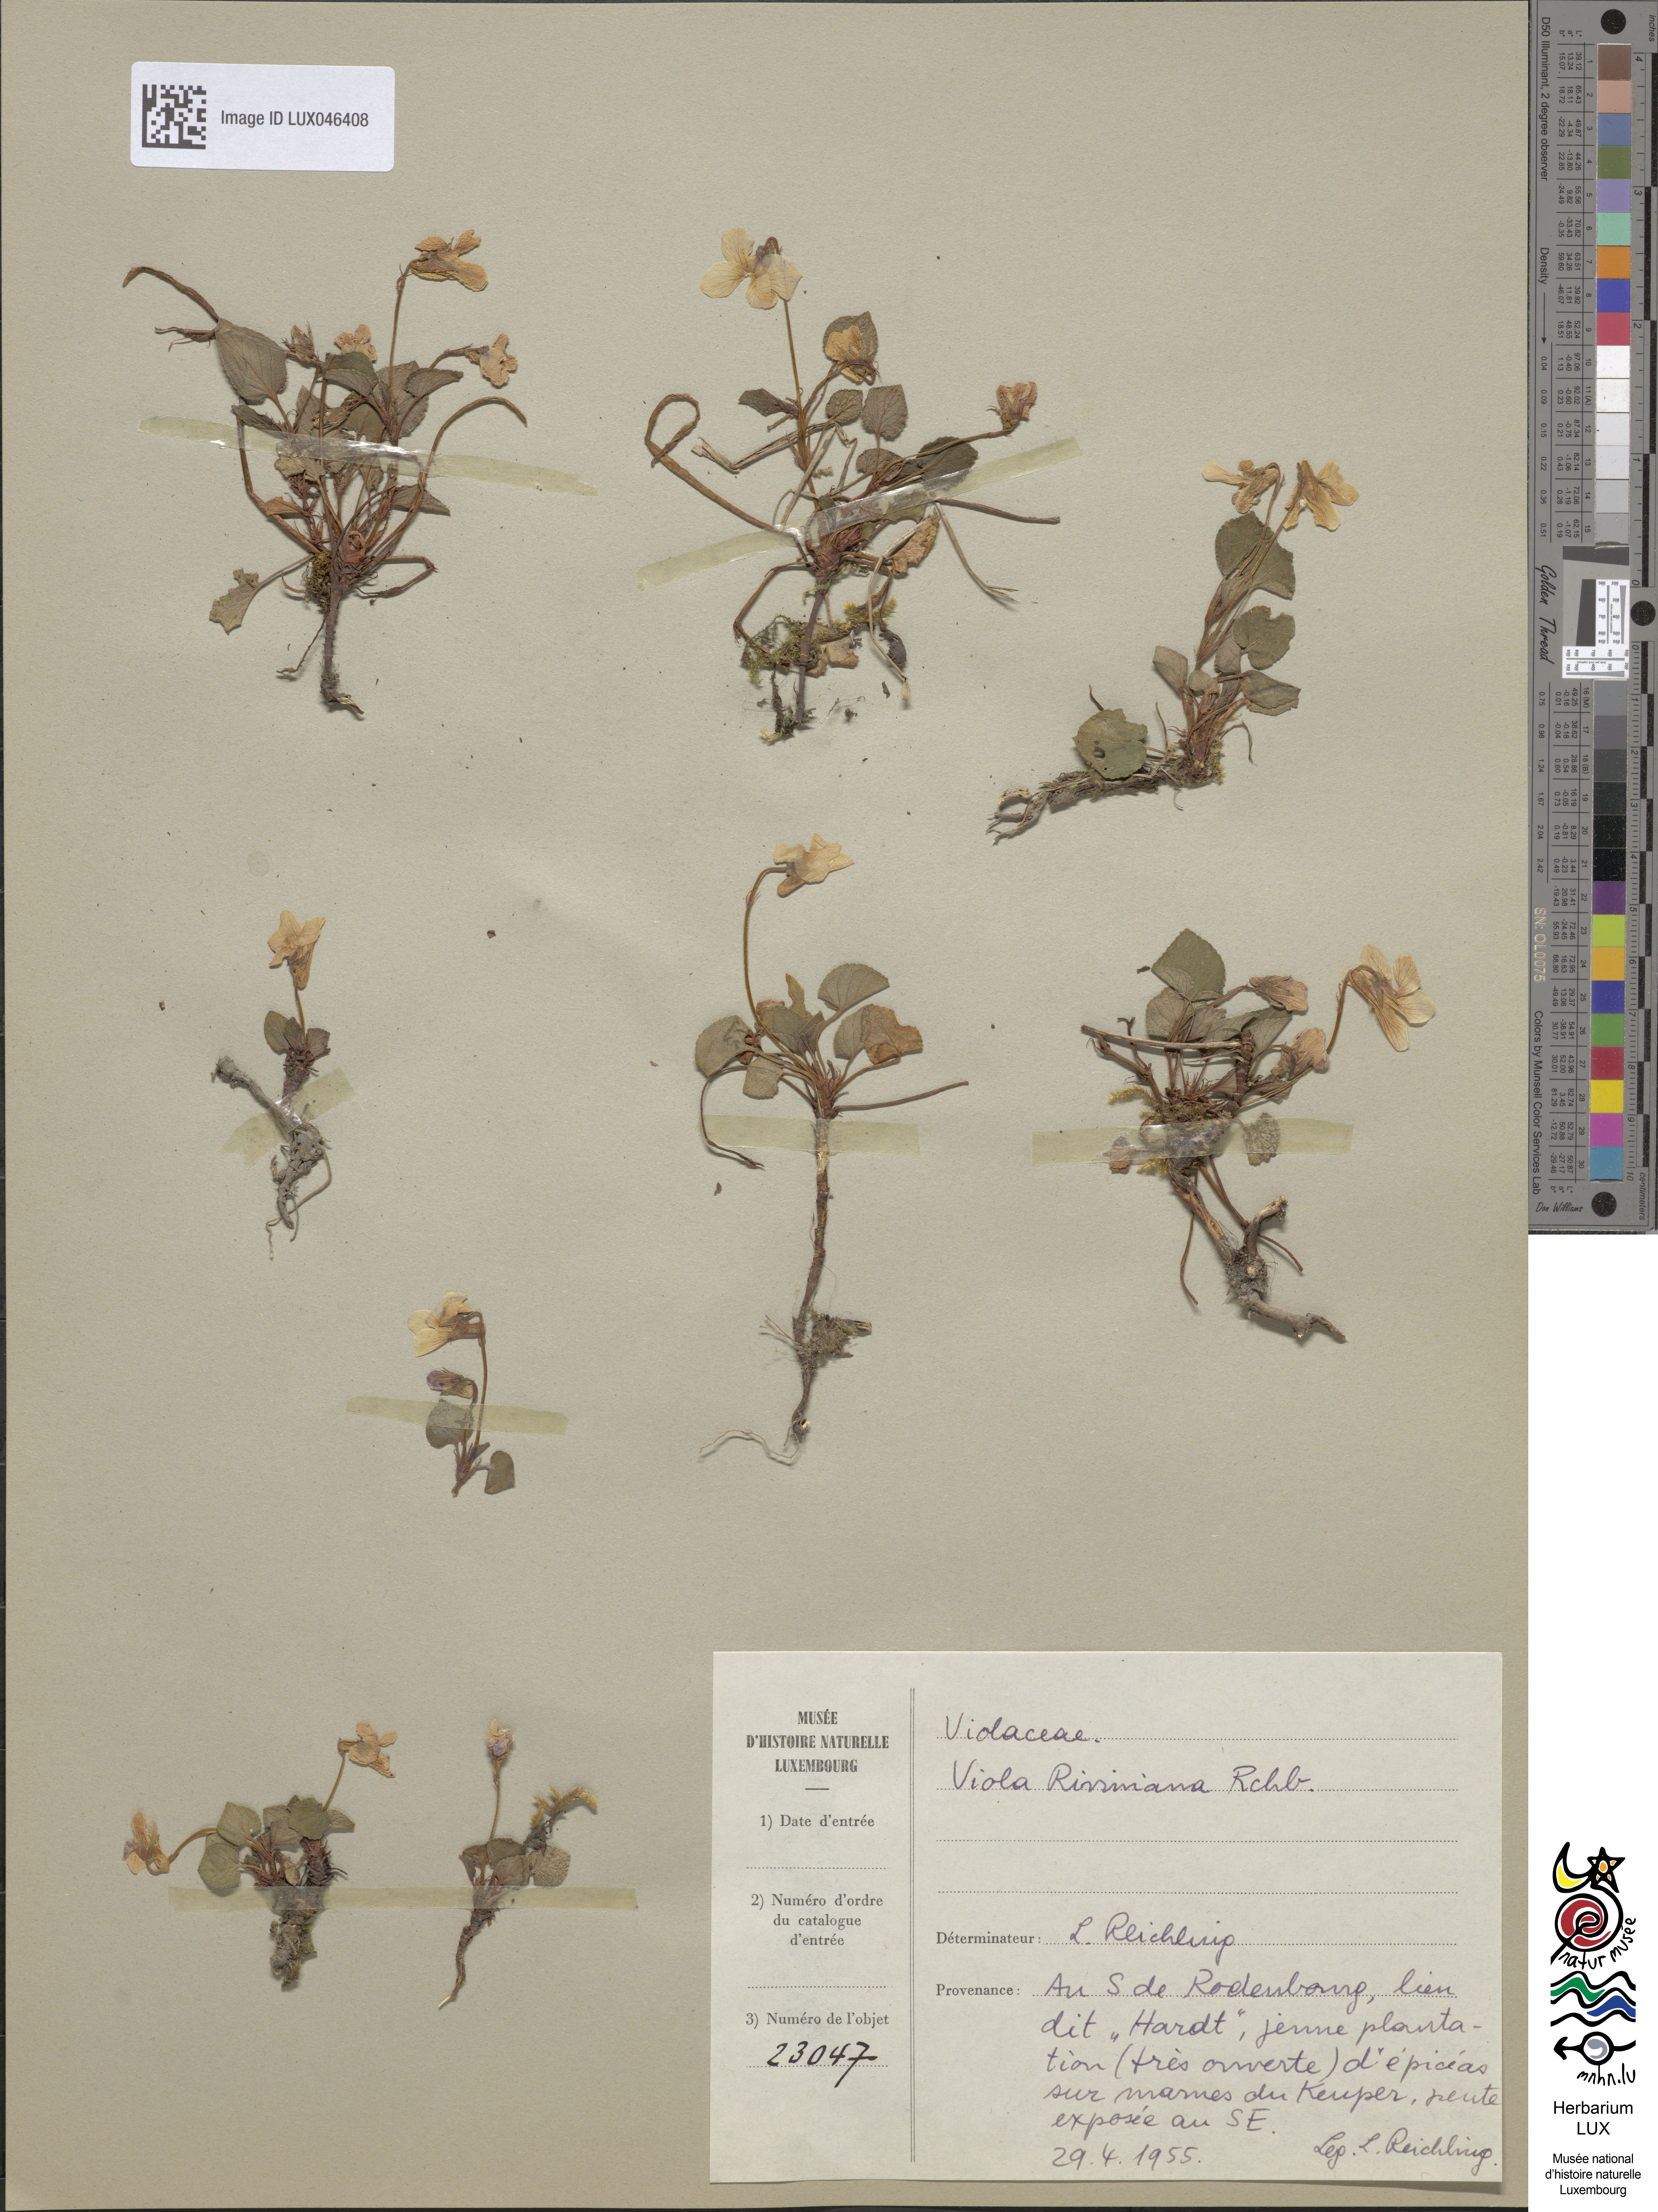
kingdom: Plantae
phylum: Tracheophyta
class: Magnoliopsida
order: Malpighiales
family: Violaceae
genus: Viola
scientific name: Viola riviniana
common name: Common dog-violet
